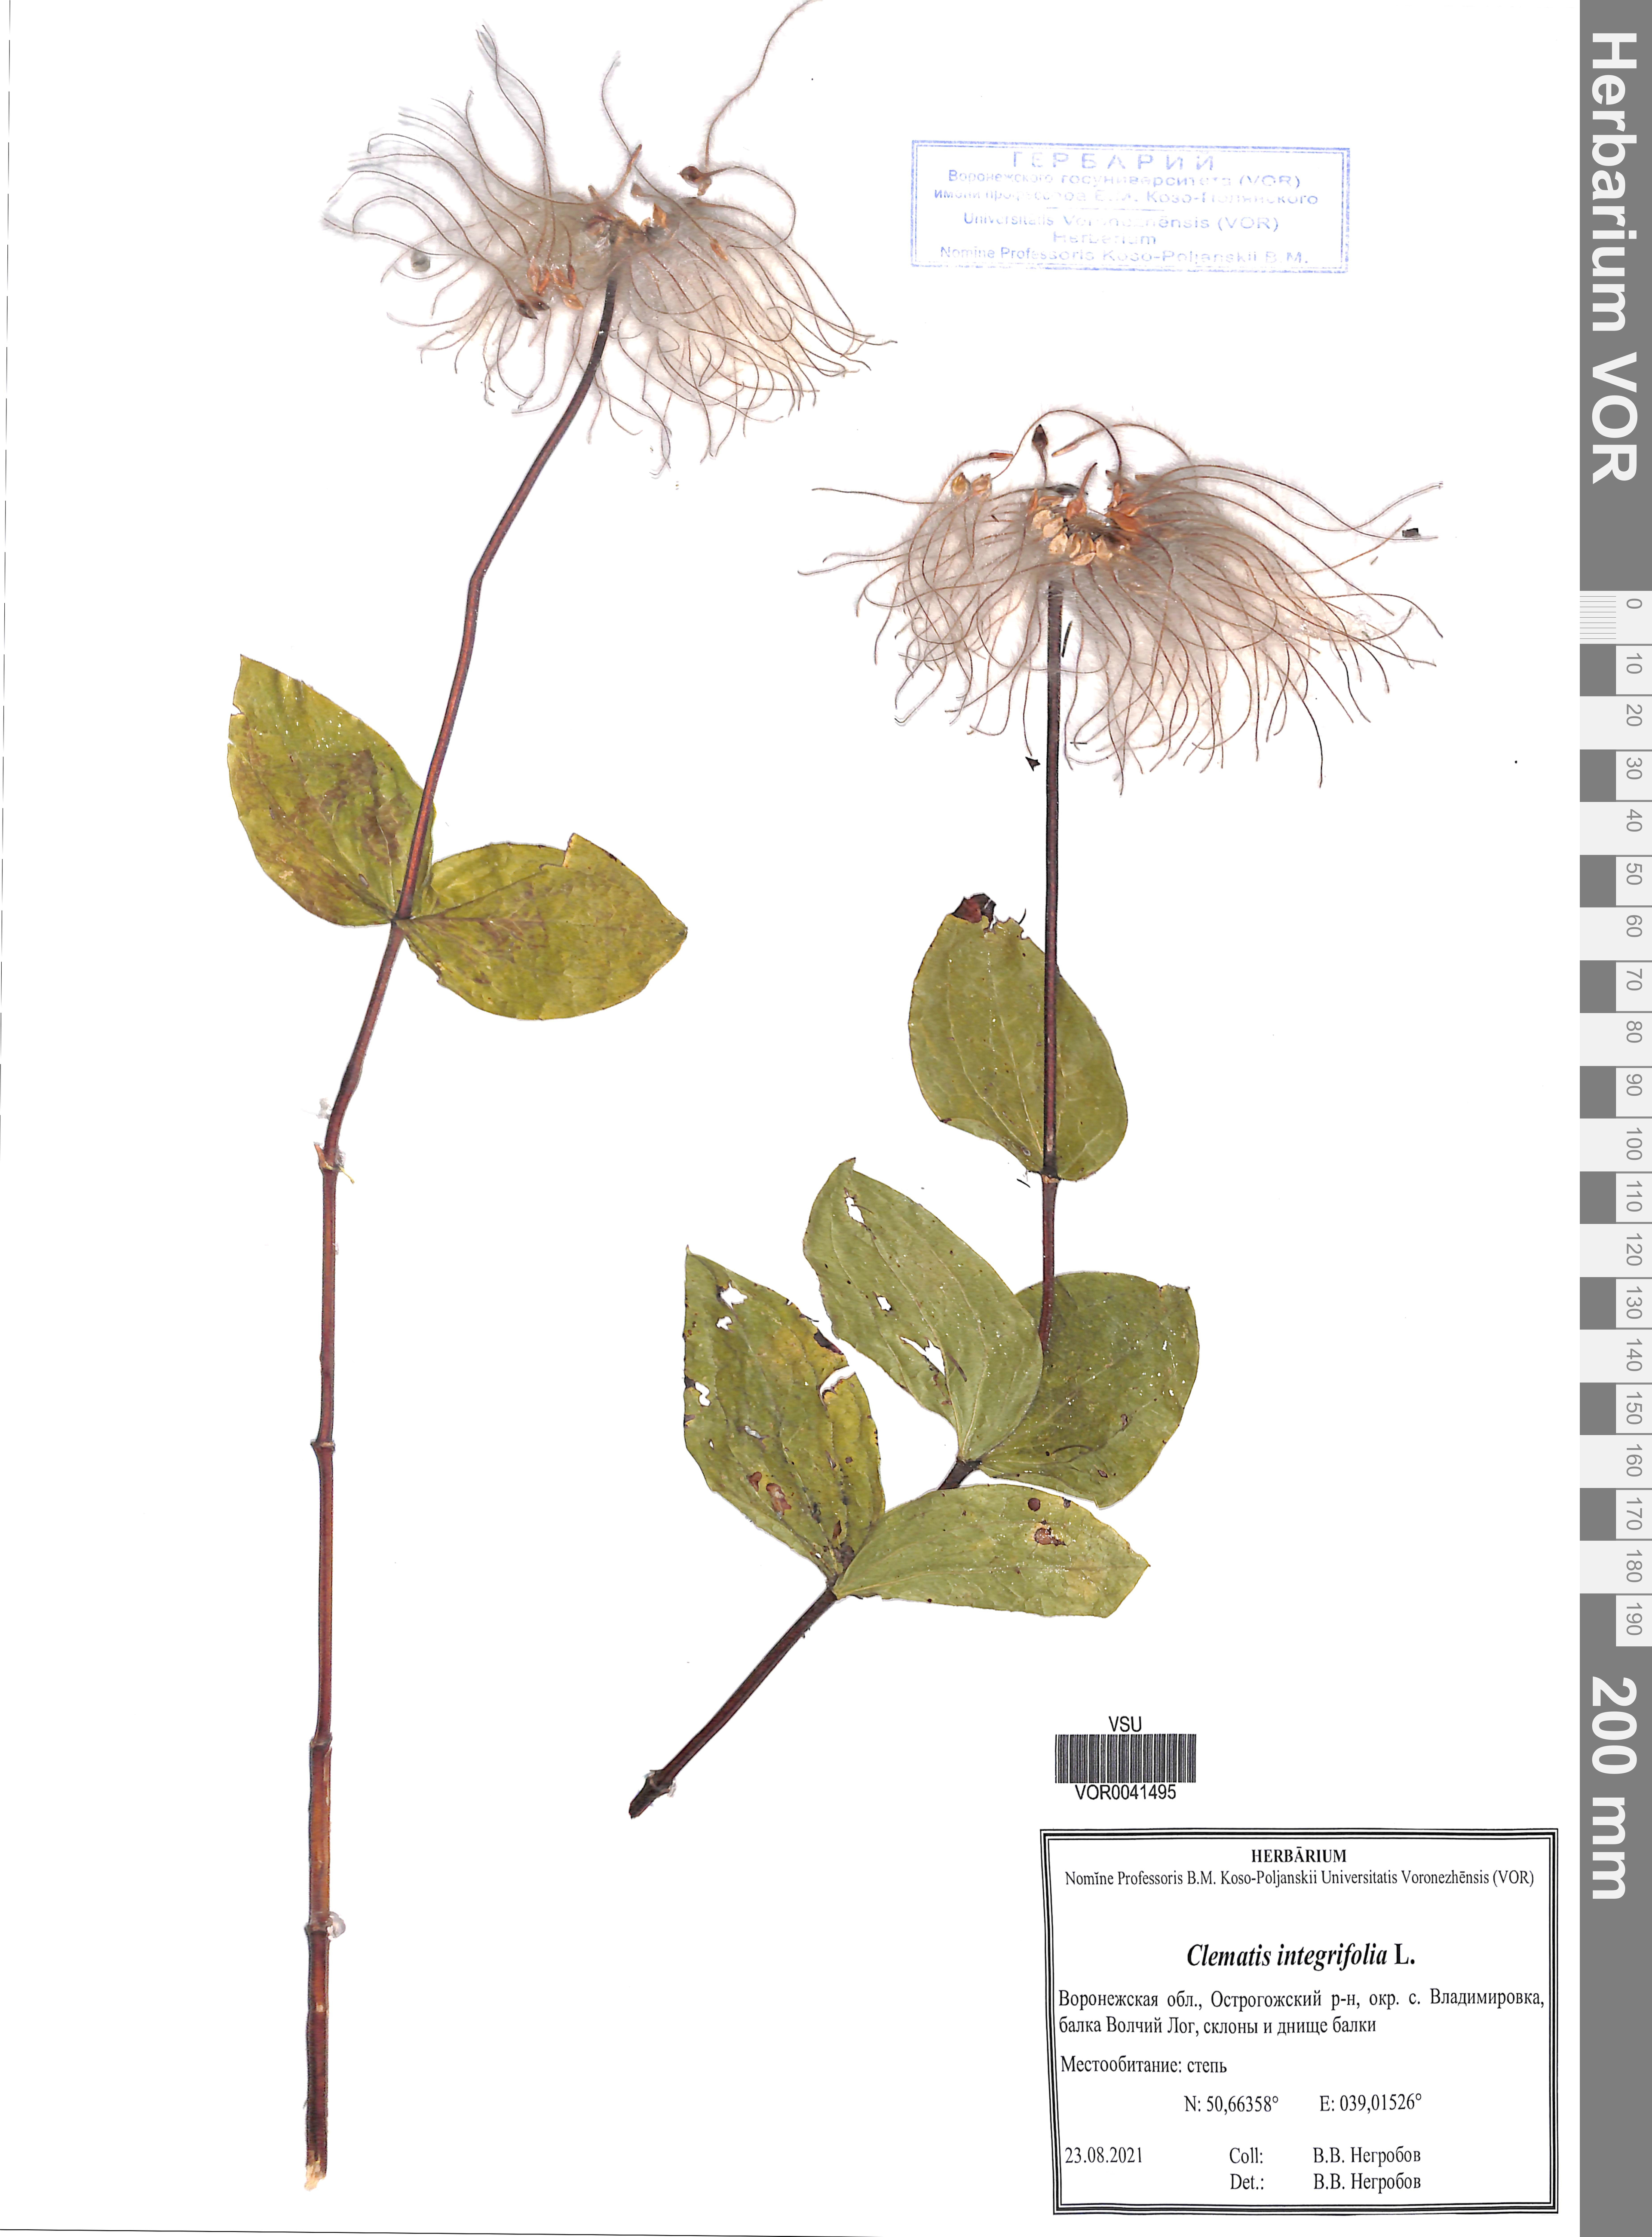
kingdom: Plantae
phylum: Tracheophyta
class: Magnoliopsida
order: Ranunculales
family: Ranunculaceae
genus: Clematis
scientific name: Clematis integrifolia
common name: Solitary clematis
